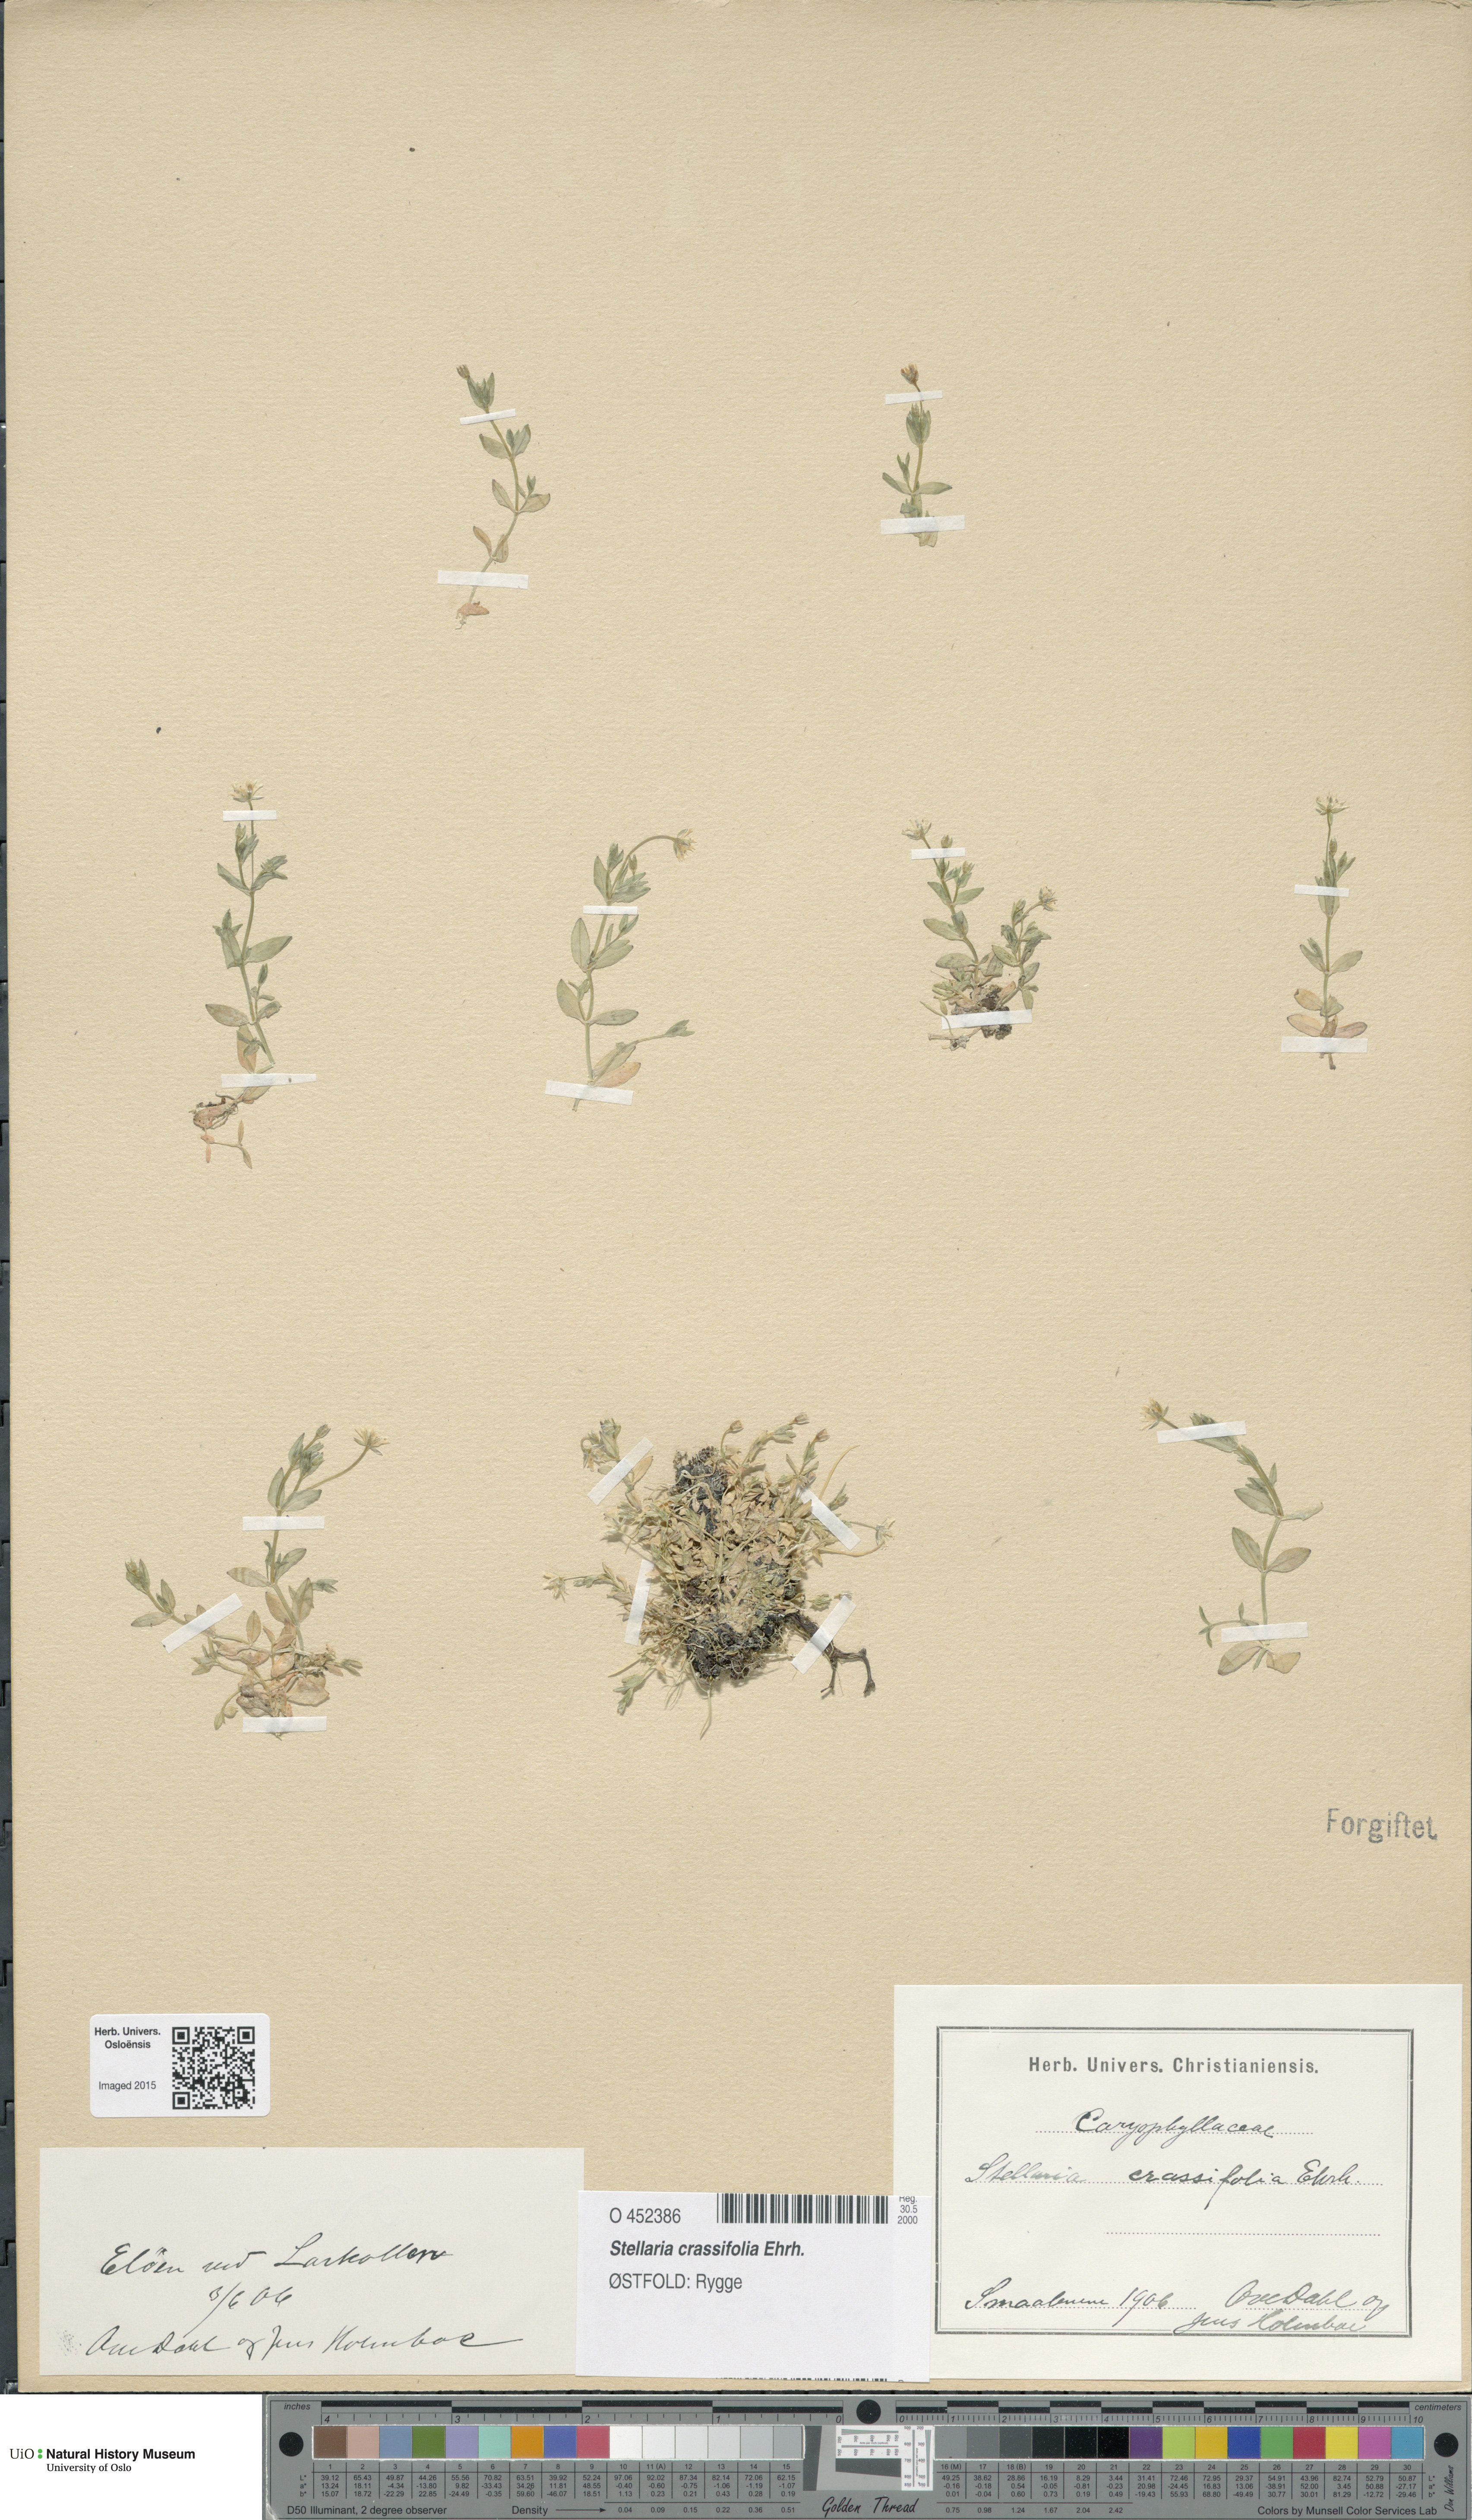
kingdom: Plantae
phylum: Tracheophyta
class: Magnoliopsida
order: Caryophyllales
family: Caryophyllaceae
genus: Stellaria
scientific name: Stellaria crassifolia
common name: Fleshy starwort
